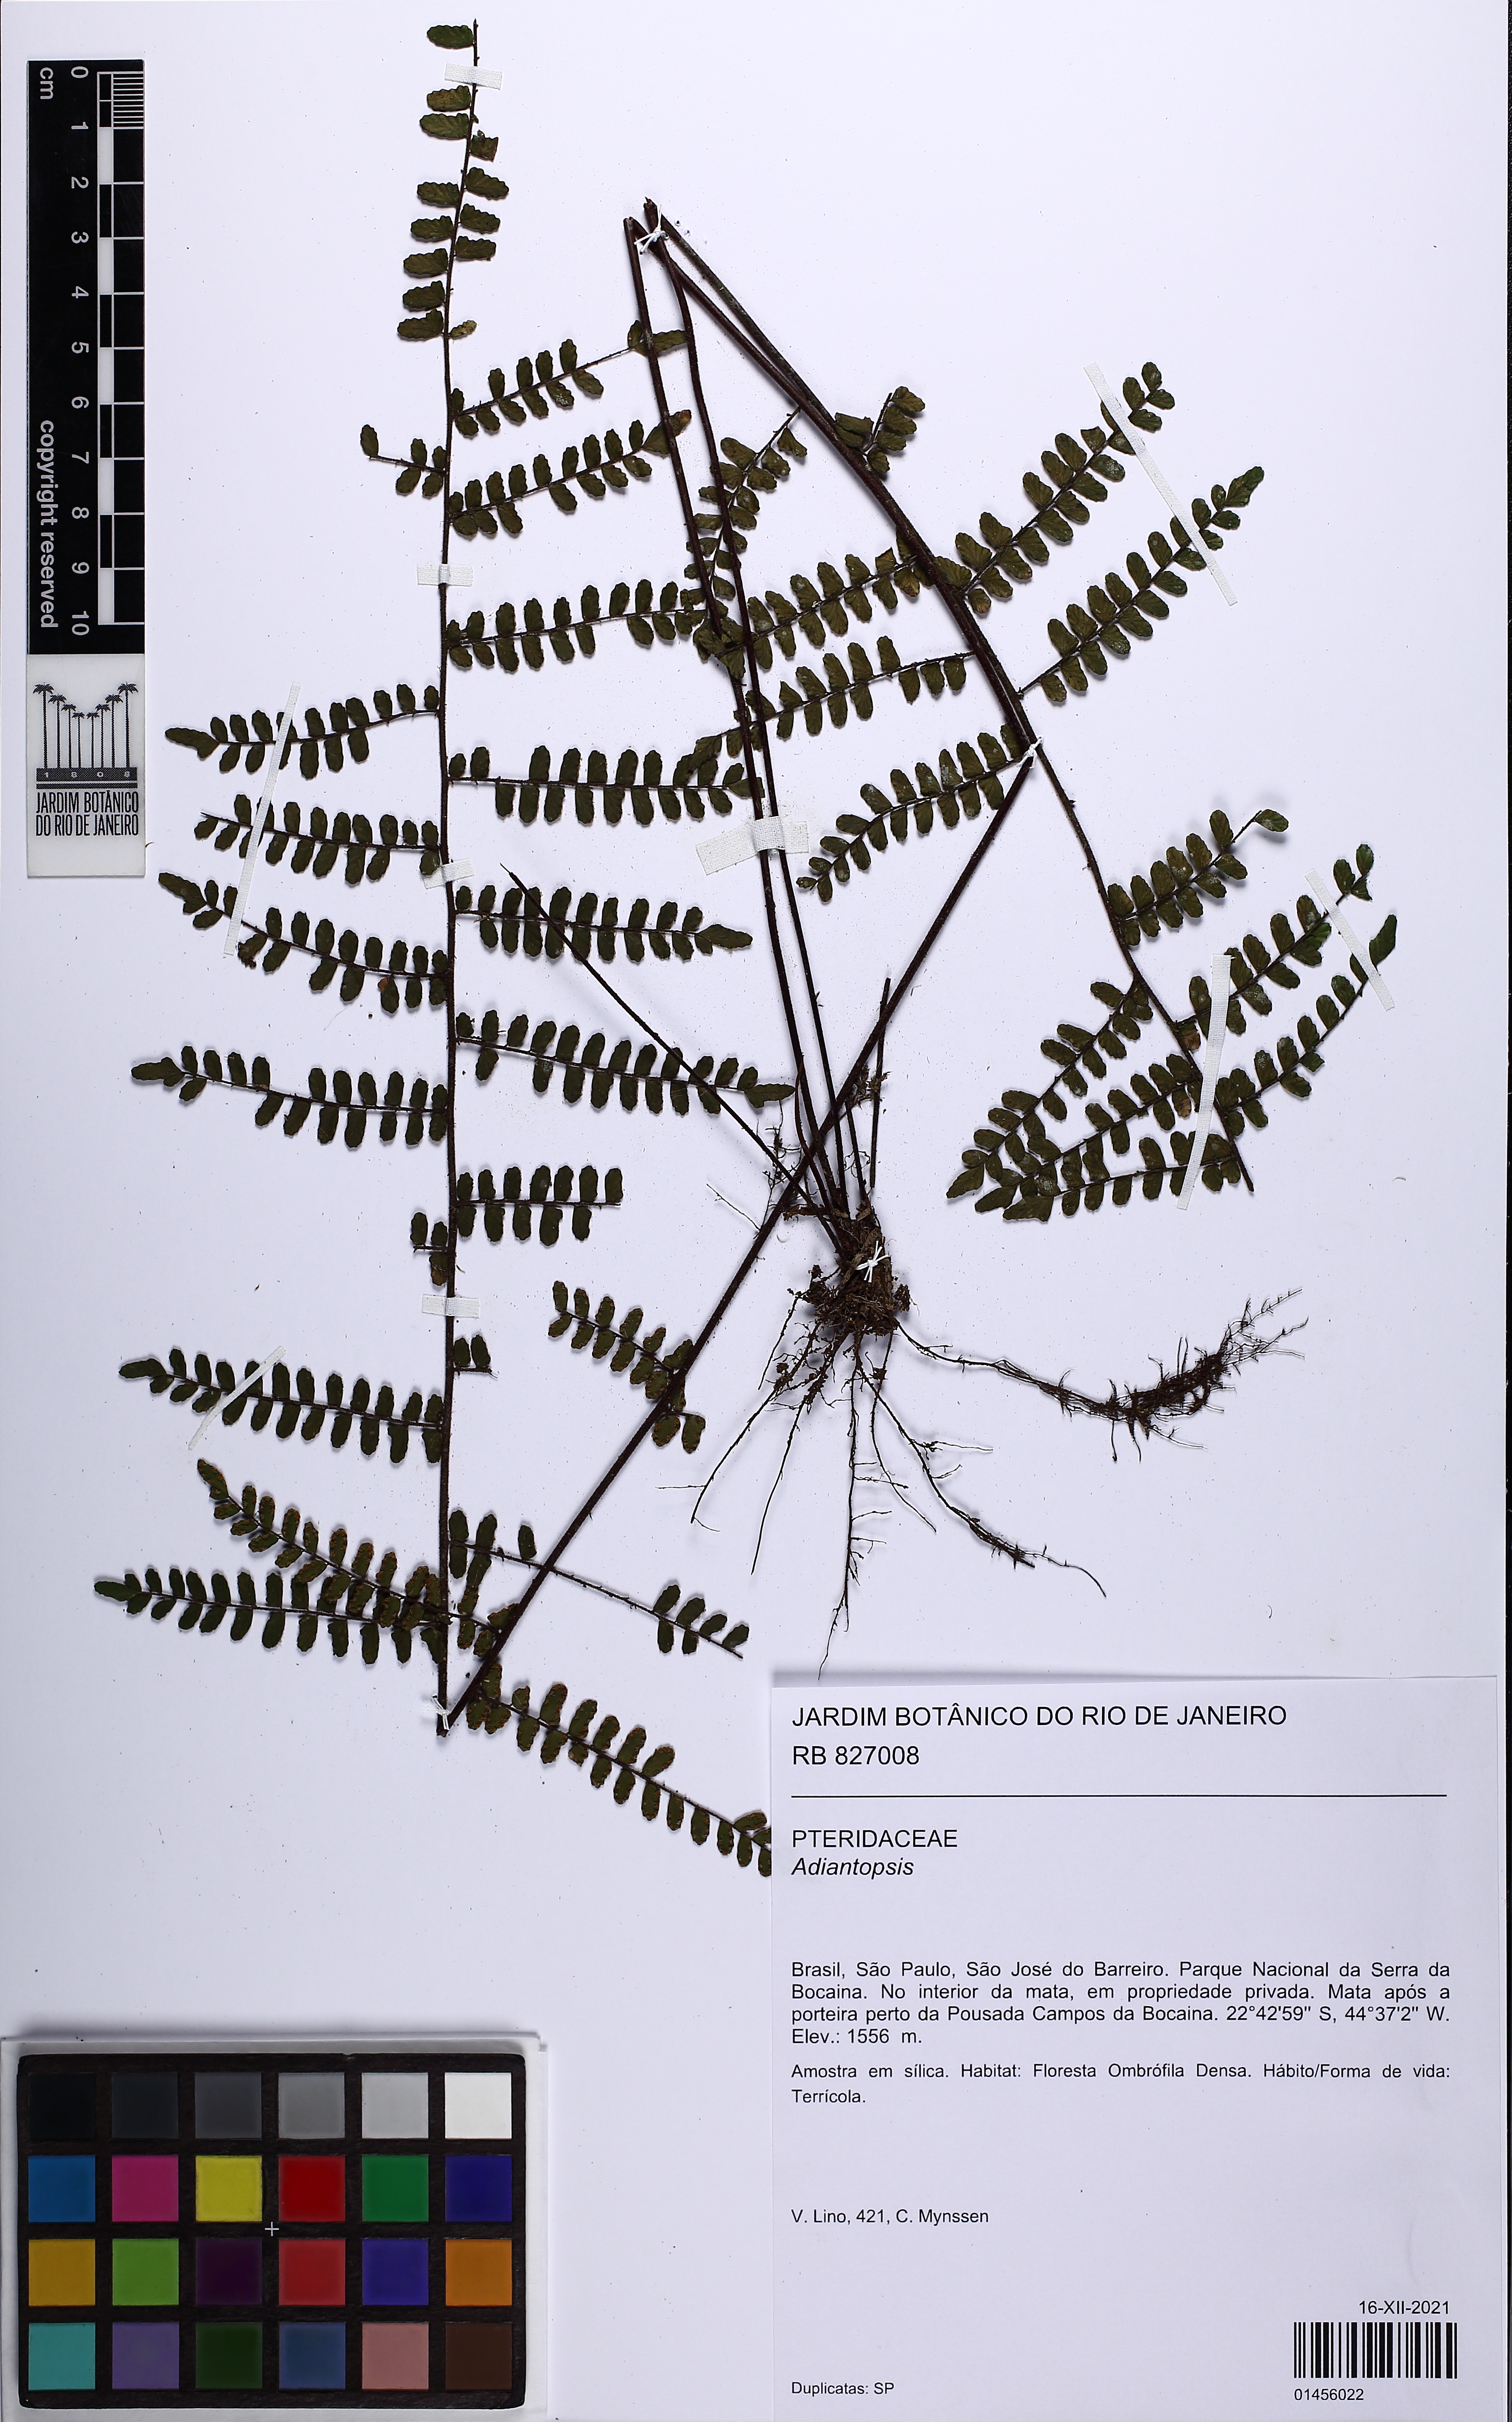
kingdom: Plantae
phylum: Tracheophyta
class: Polypodiopsida
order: Polypodiales
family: Pteridaceae
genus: Adiantopsis
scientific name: Adiantopsis
